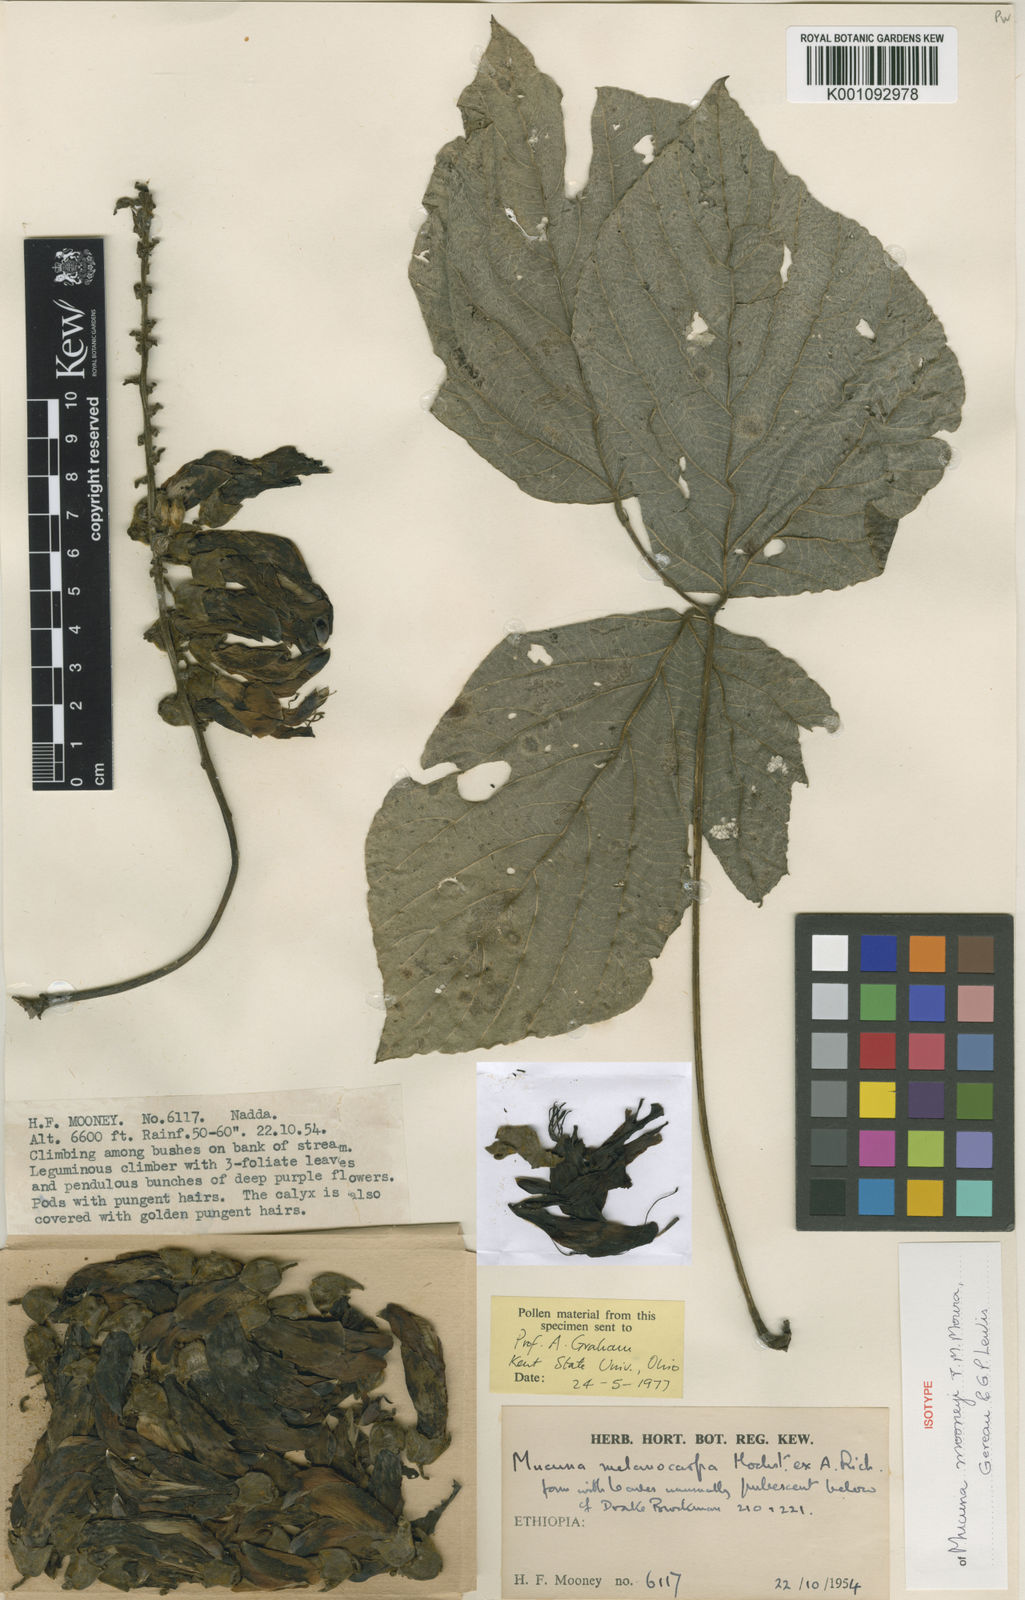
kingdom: Plantae
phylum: Tracheophyta
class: Magnoliopsida
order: Fabales
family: Fabaceae
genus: Mucuna
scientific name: Mucuna mooneyi
